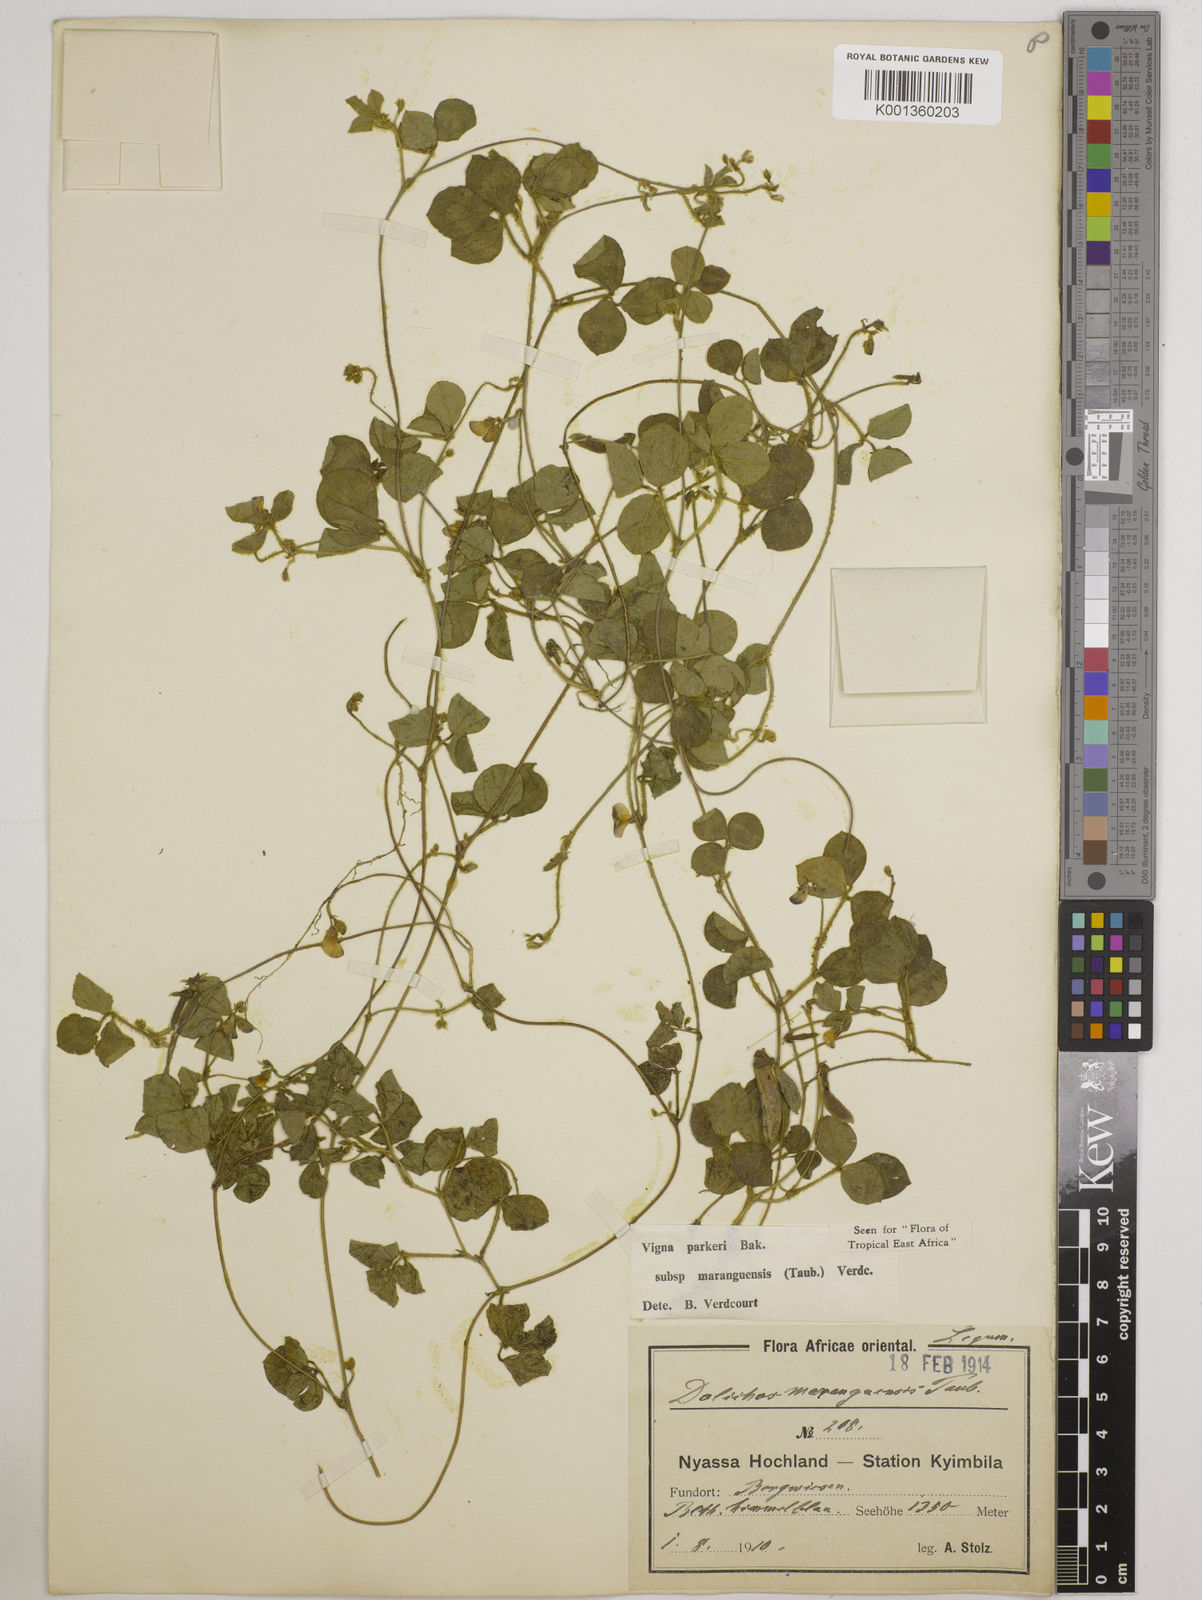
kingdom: Plantae
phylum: Tracheophyta
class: Magnoliopsida
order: Fabales
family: Fabaceae
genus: Vigna
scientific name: Vigna
